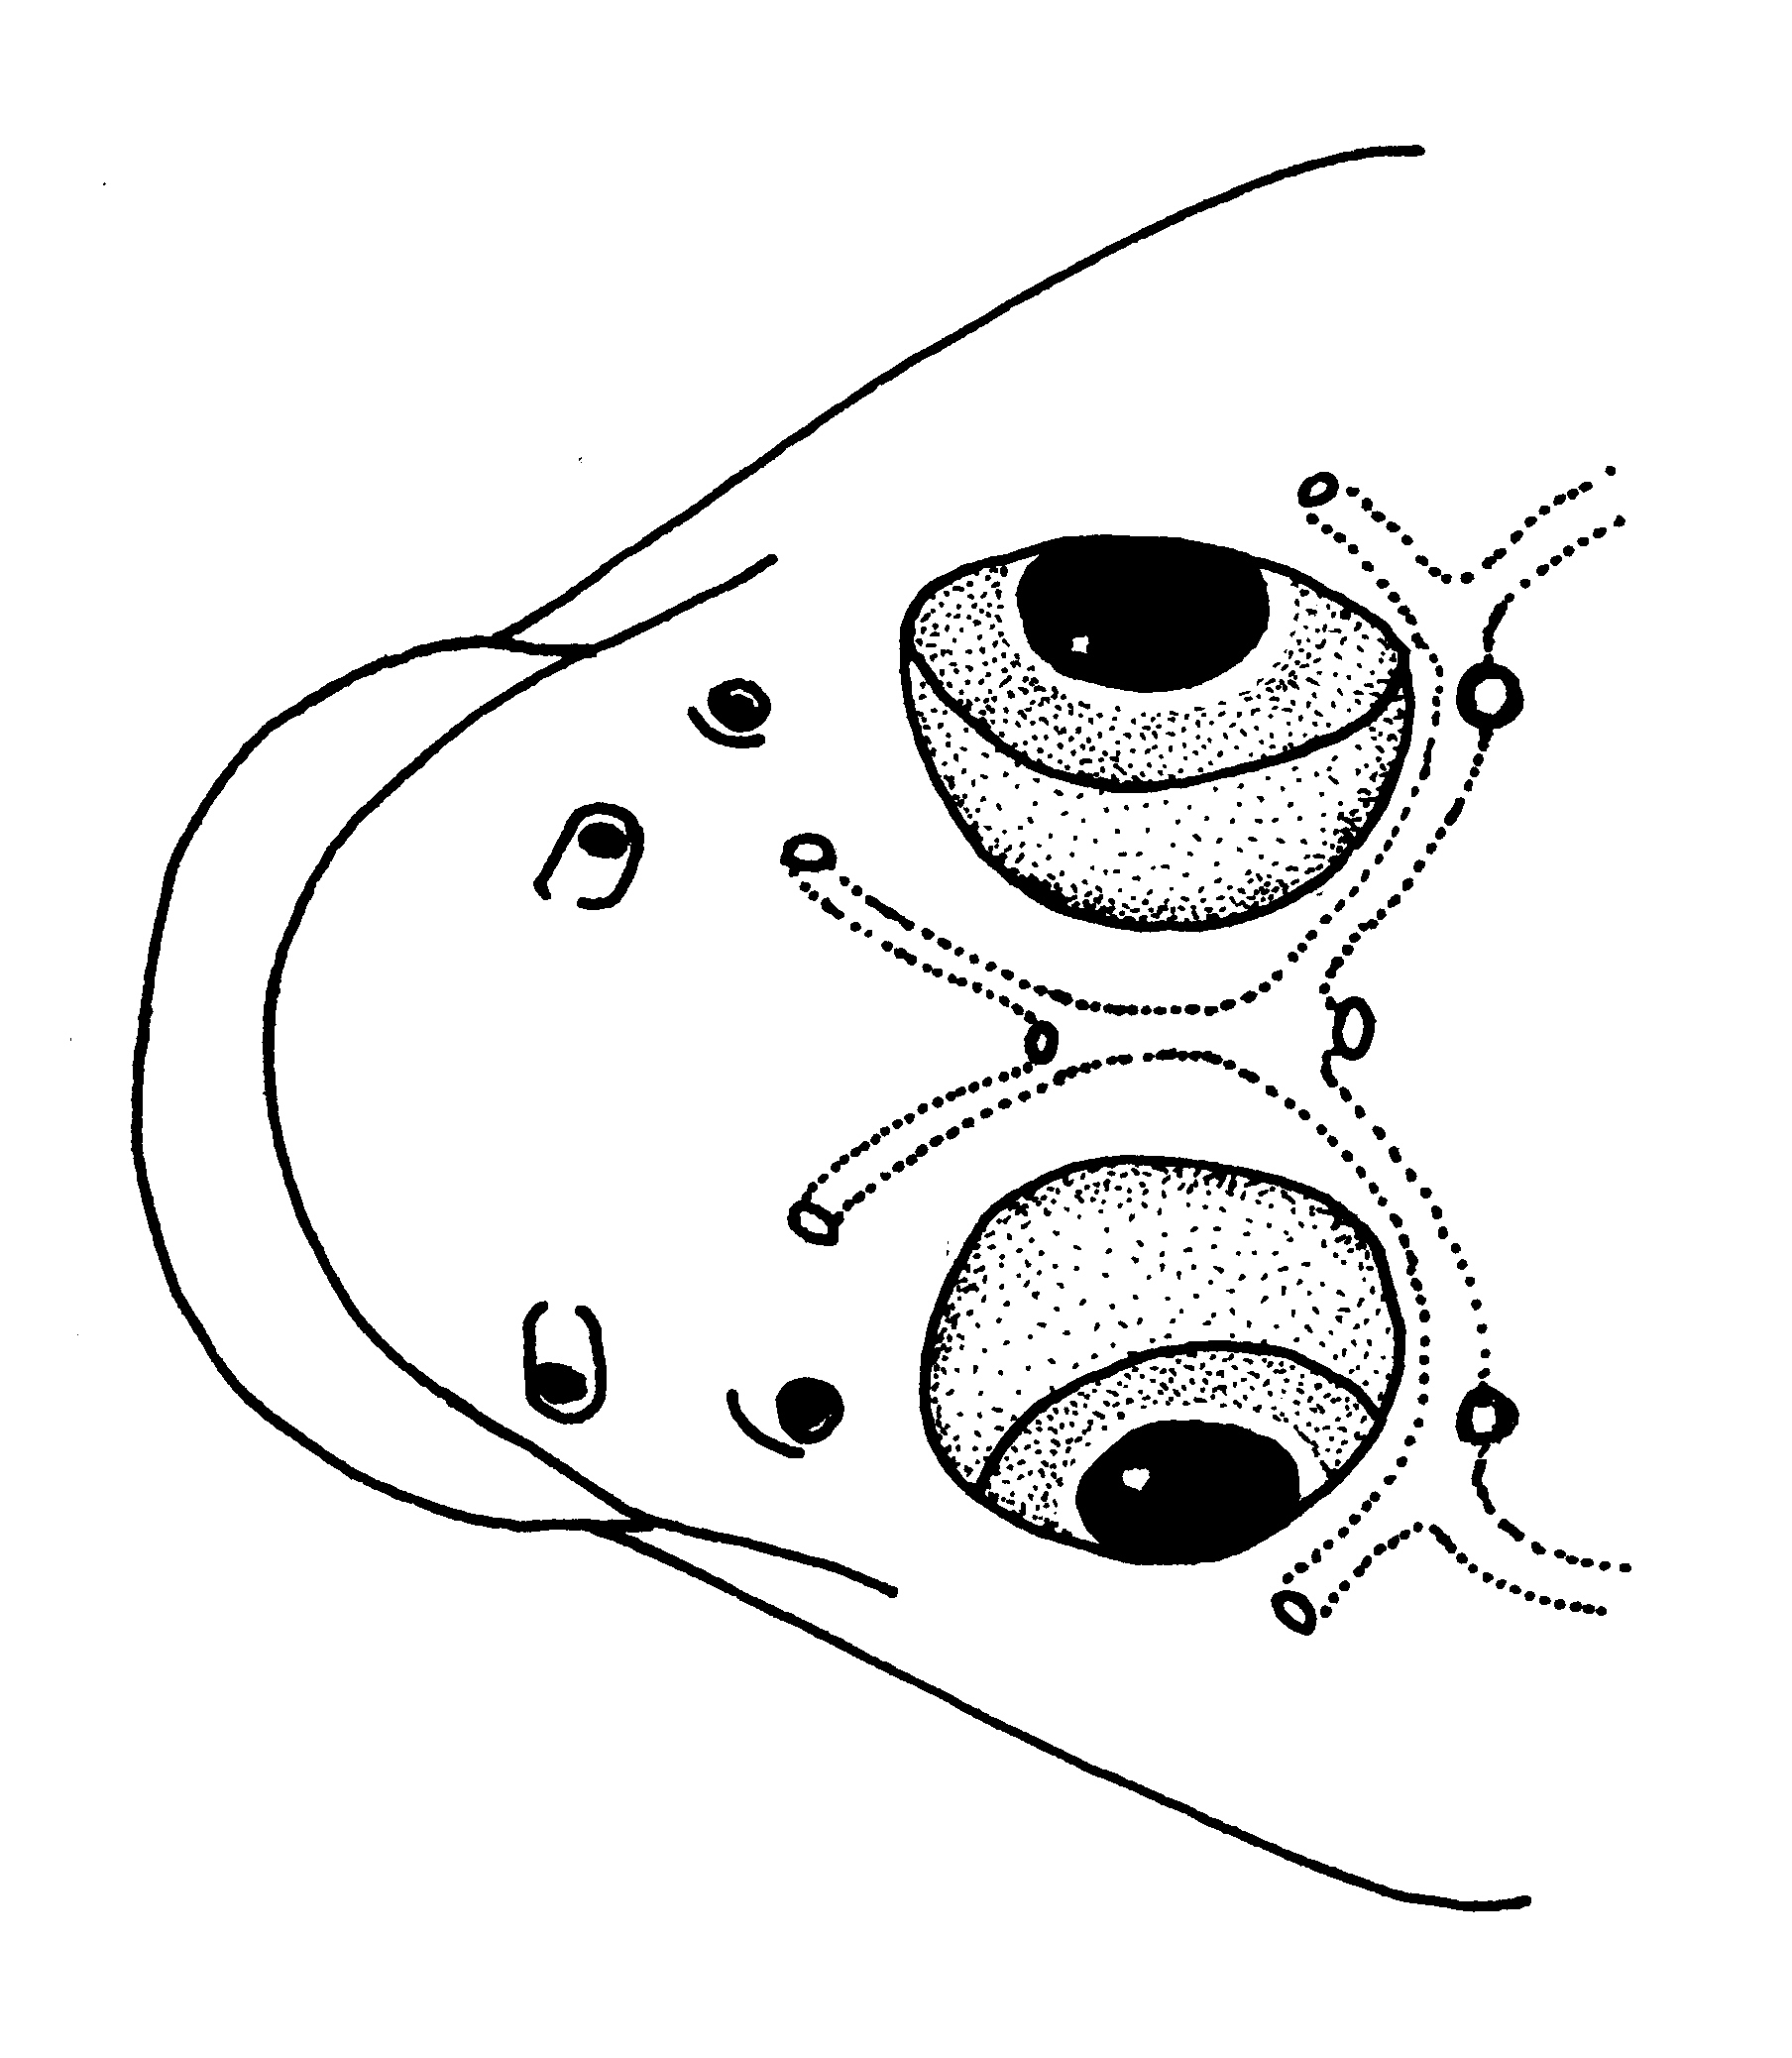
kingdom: Animalia
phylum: Chordata
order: Perciformes
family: Gobiidae
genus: Istigobius
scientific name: Istigobius decoratus
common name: Decorated goby
